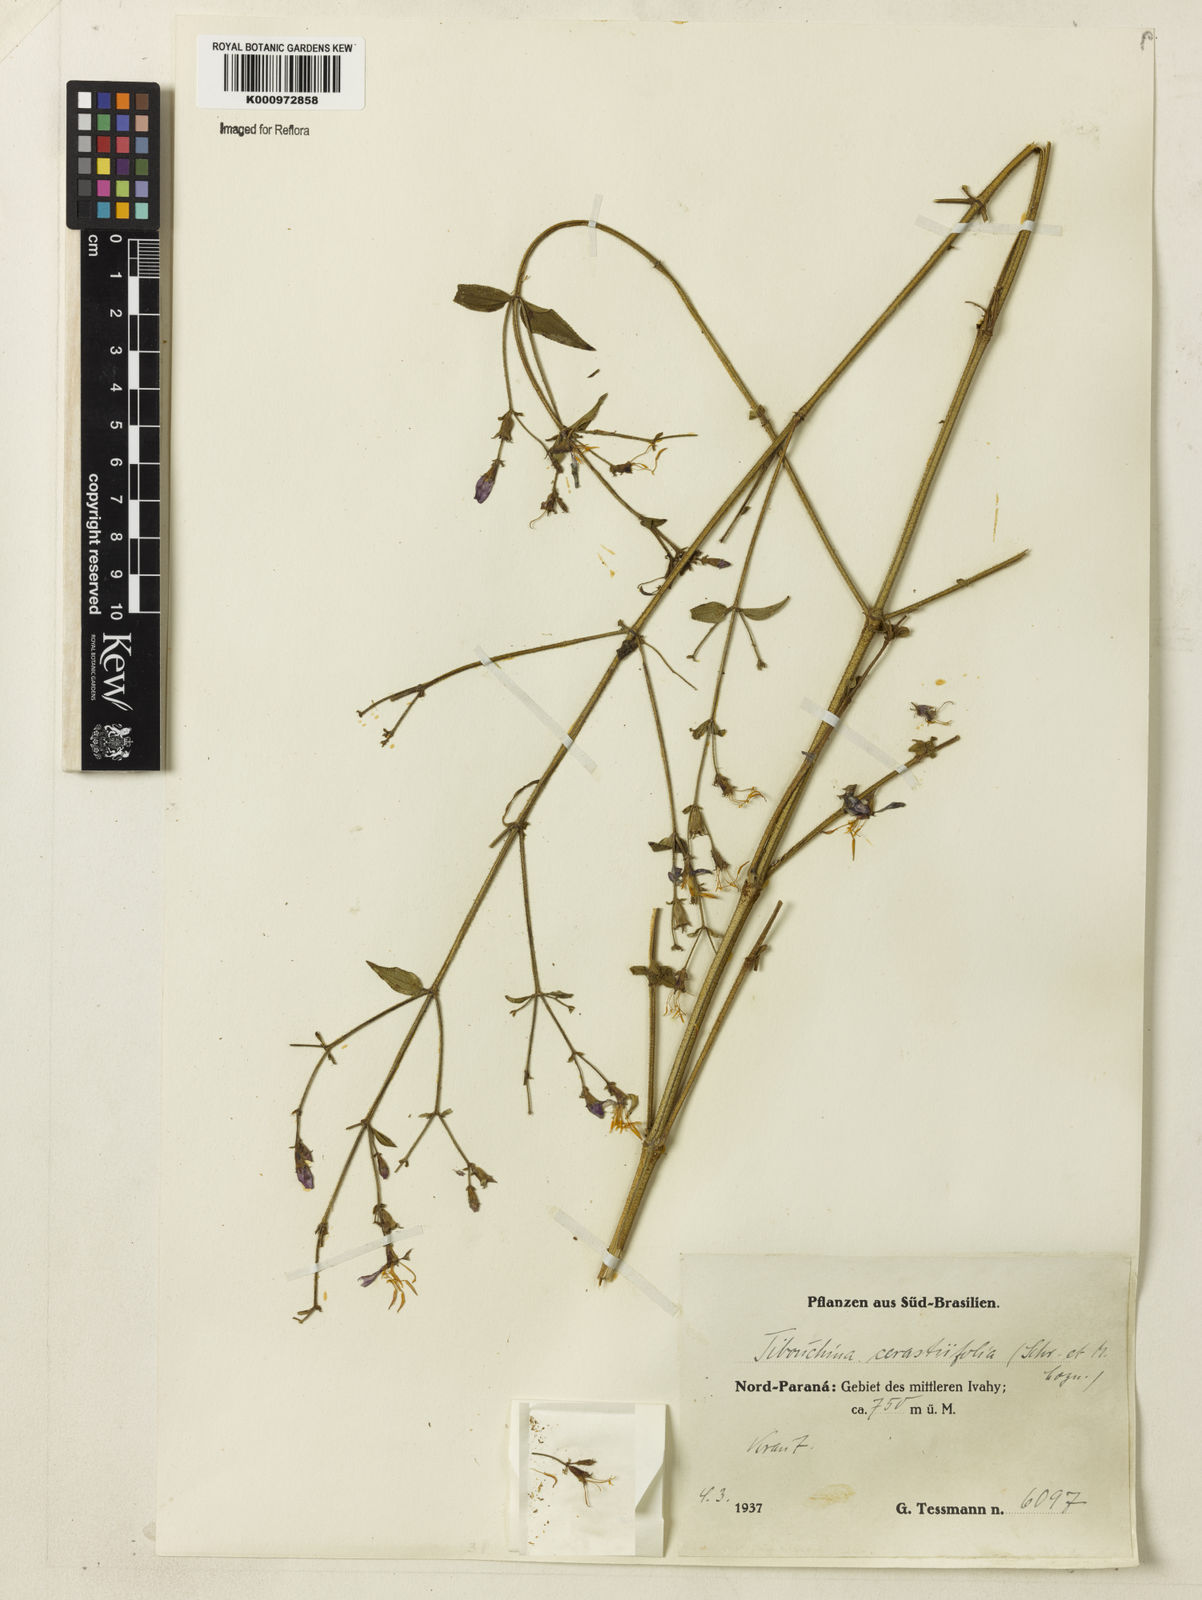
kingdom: Plantae
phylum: Tracheophyta
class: Magnoliopsida
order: Myrtales
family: Melastomataceae
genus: Chaetogastra
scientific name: Chaetogastra cerastifolia
